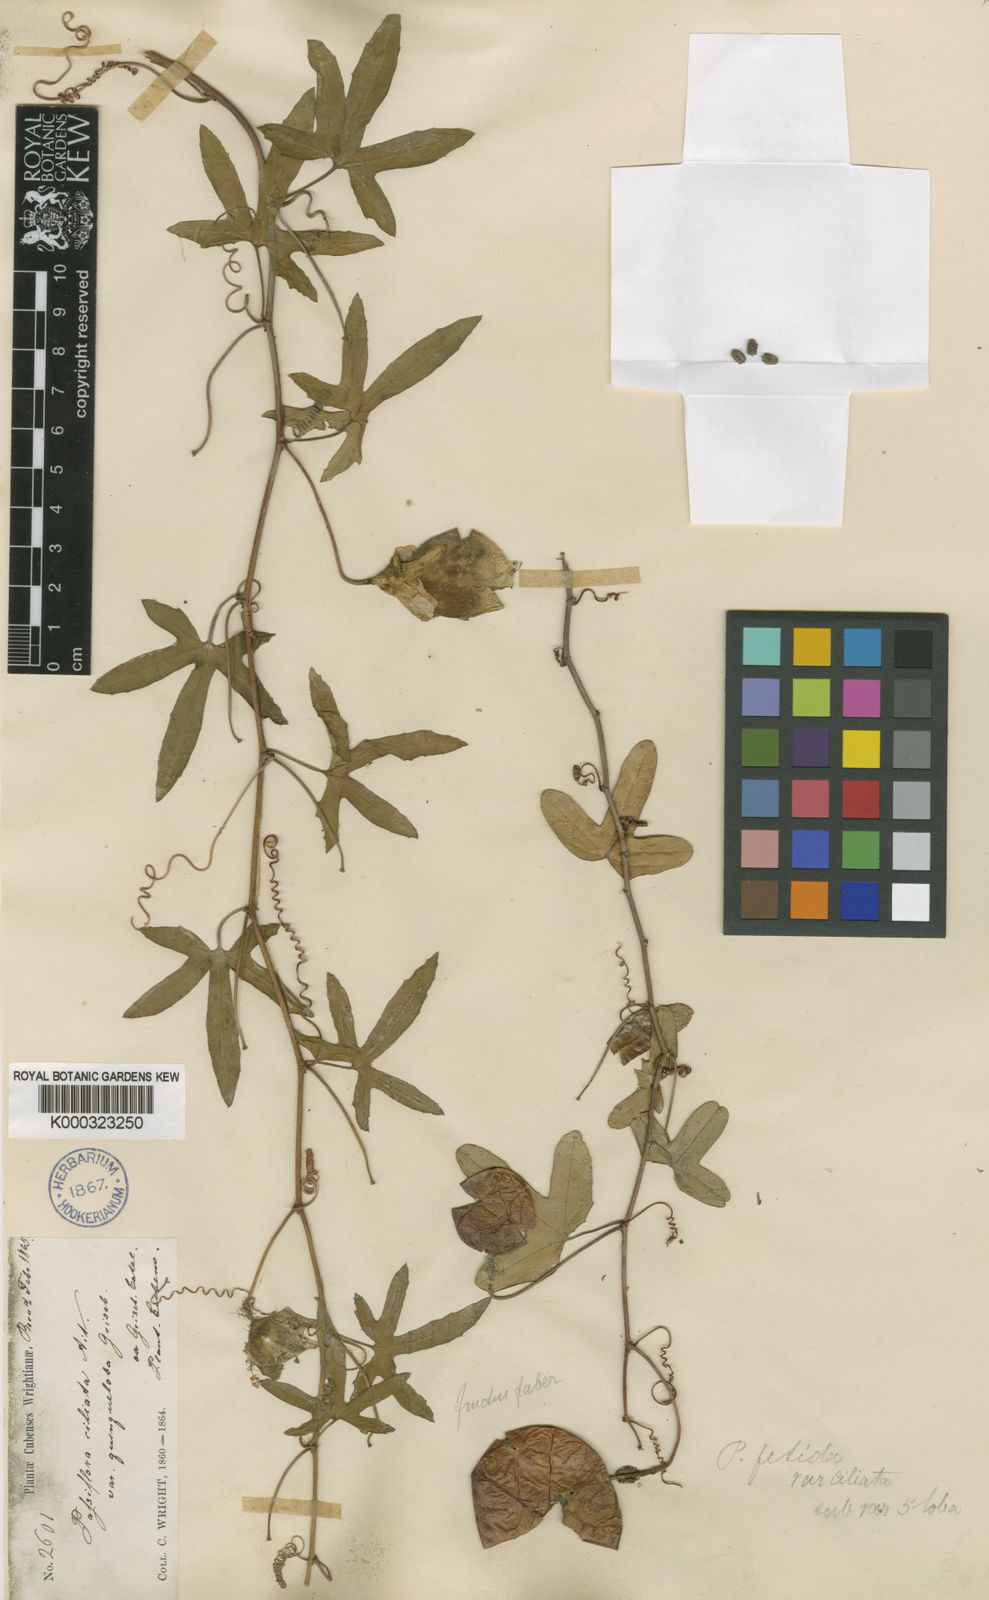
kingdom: Plantae
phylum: Tracheophyta
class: Magnoliopsida
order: Malpighiales
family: Passifloraceae
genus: Passiflora
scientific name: Passiflora ciliata
